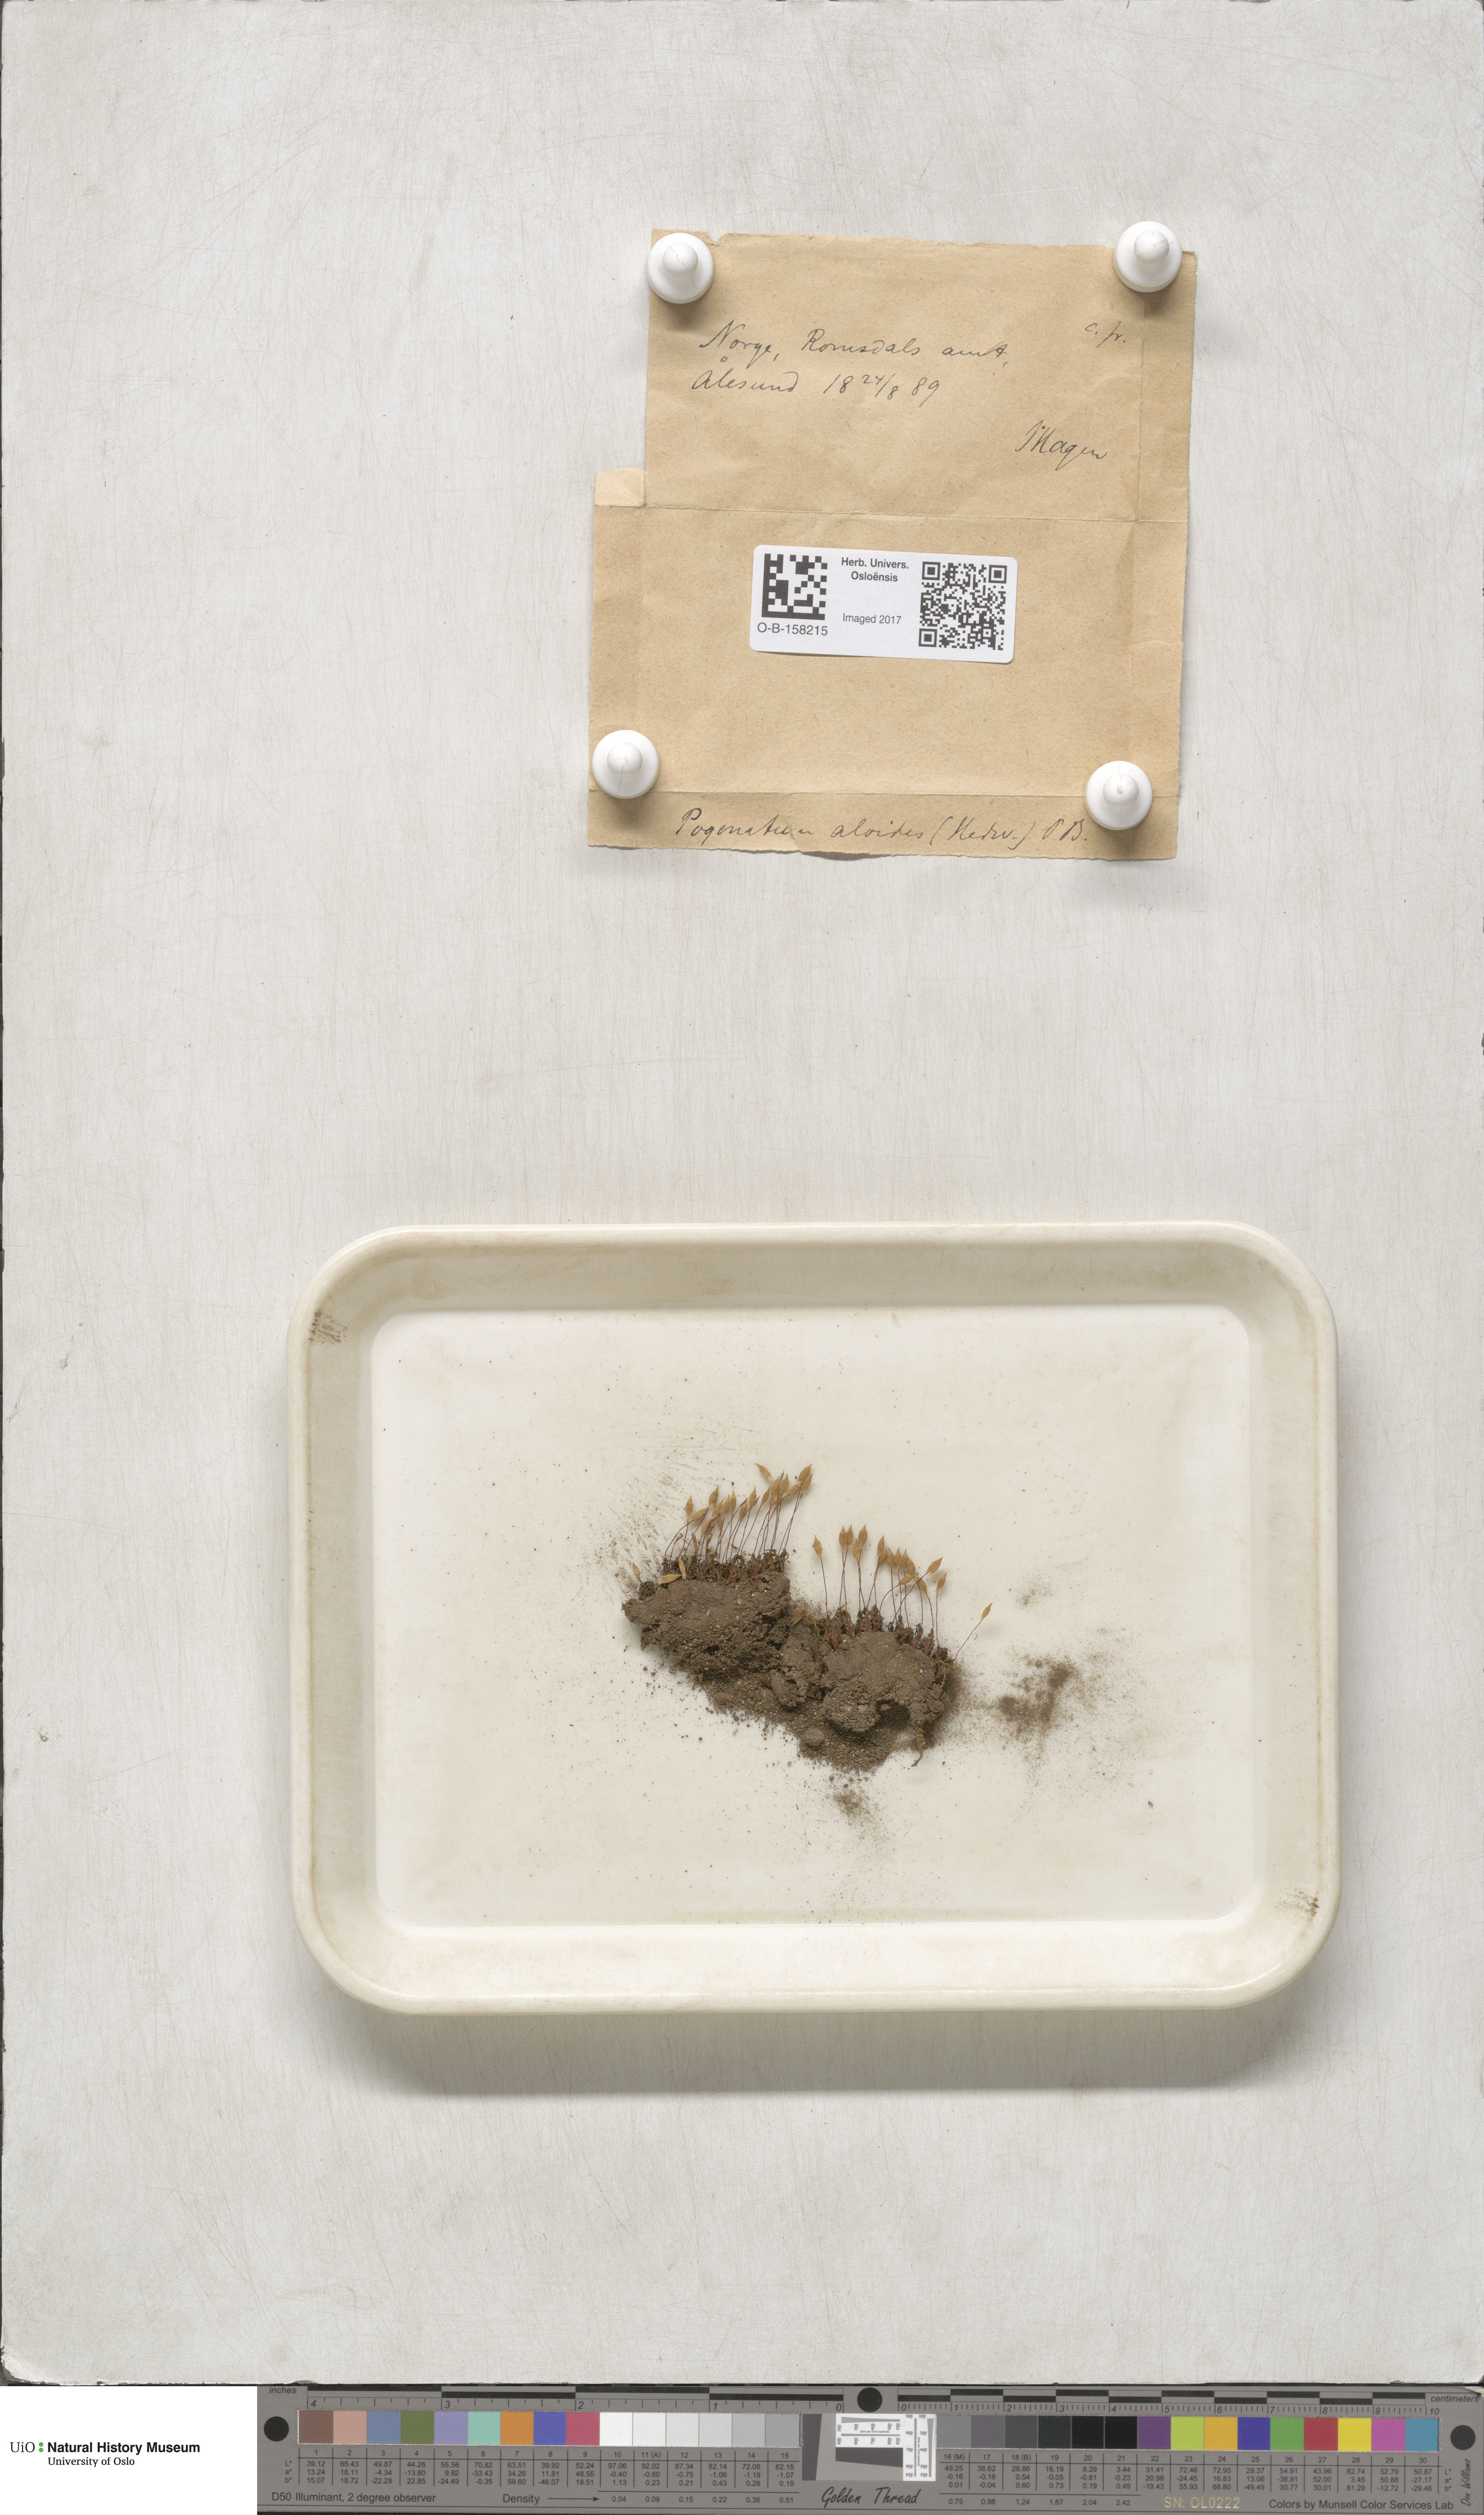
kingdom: Plantae
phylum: Bryophyta
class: Polytrichopsida
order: Polytrichales
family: Polytrichaceae
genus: Pogonatum
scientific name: Pogonatum aloides
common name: Aloe haircap
